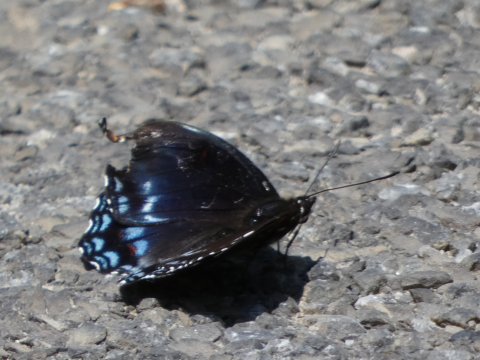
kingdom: Animalia
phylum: Arthropoda
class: Insecta
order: Lepidoptera
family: Nymphalidae
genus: Limenitis
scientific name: Limenitis arthemis
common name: Red-spotted Admiral
